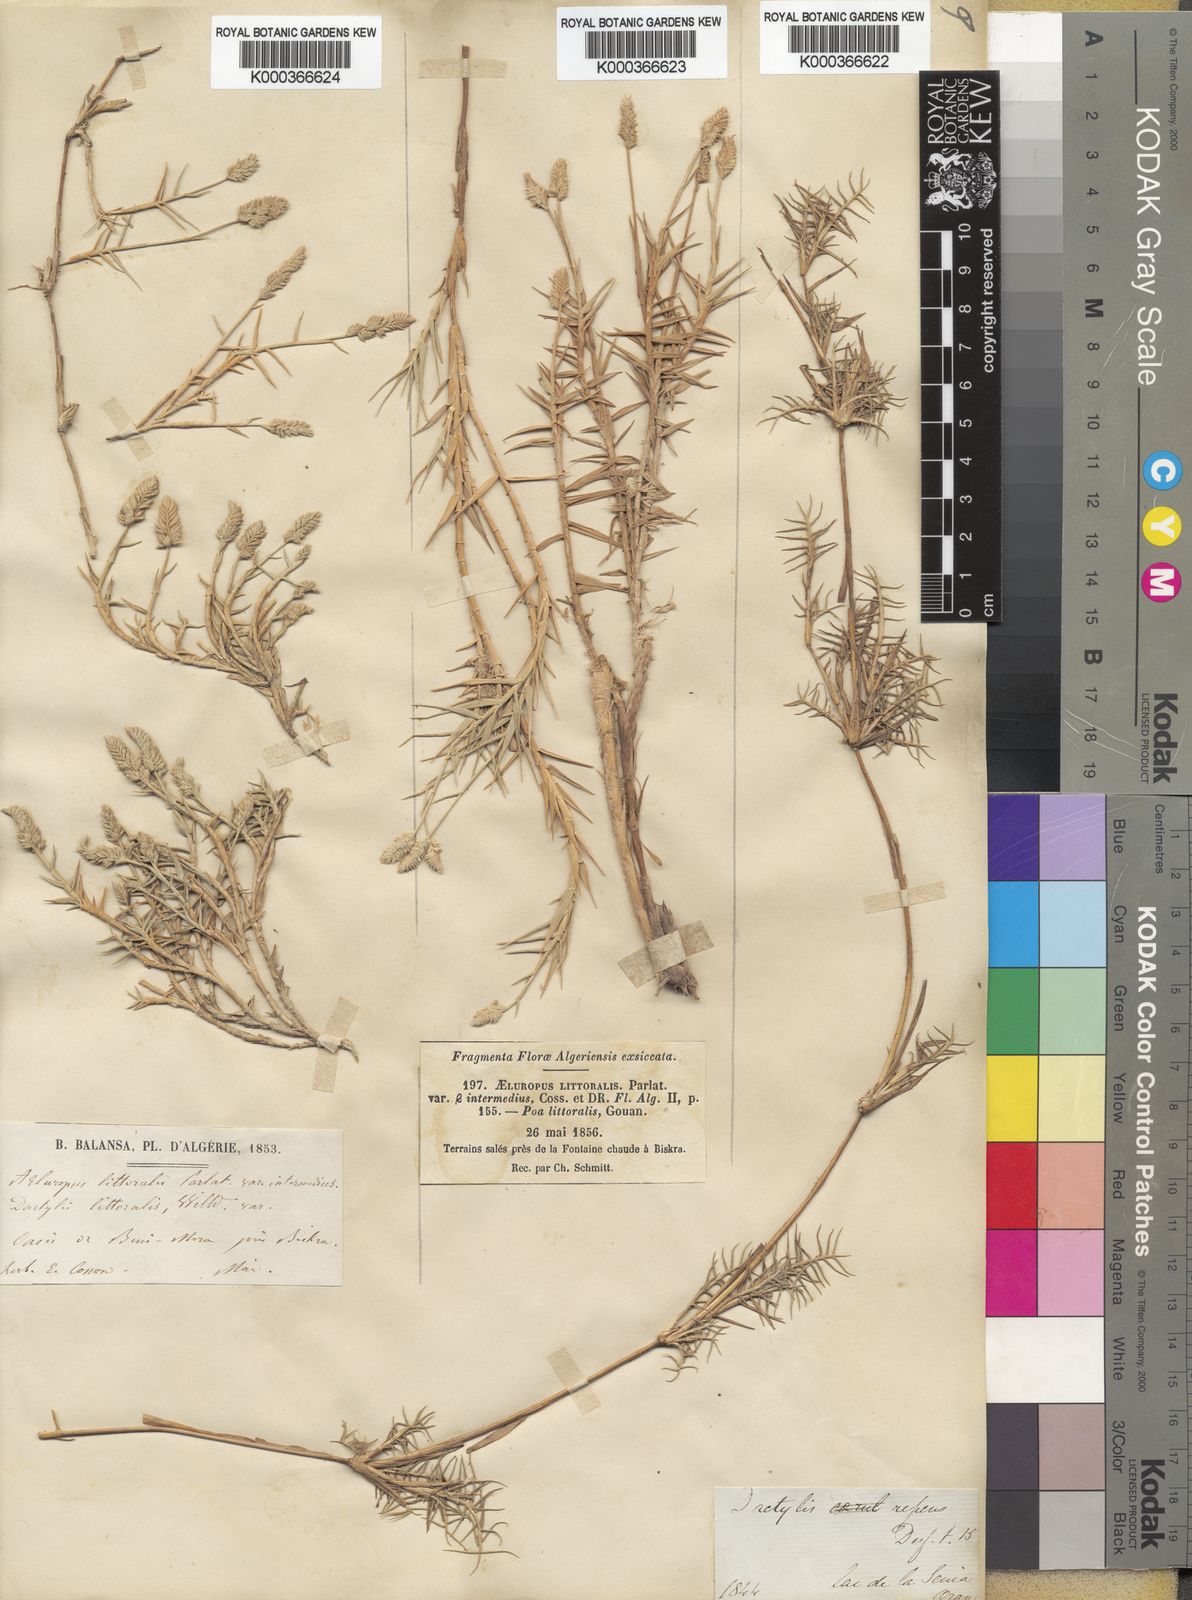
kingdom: Plantae
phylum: Tracheophyta
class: Liliopsida
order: Poales
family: Poaceae
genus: Aeluropus
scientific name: Aeluropus littoralis
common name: Indian walnut
